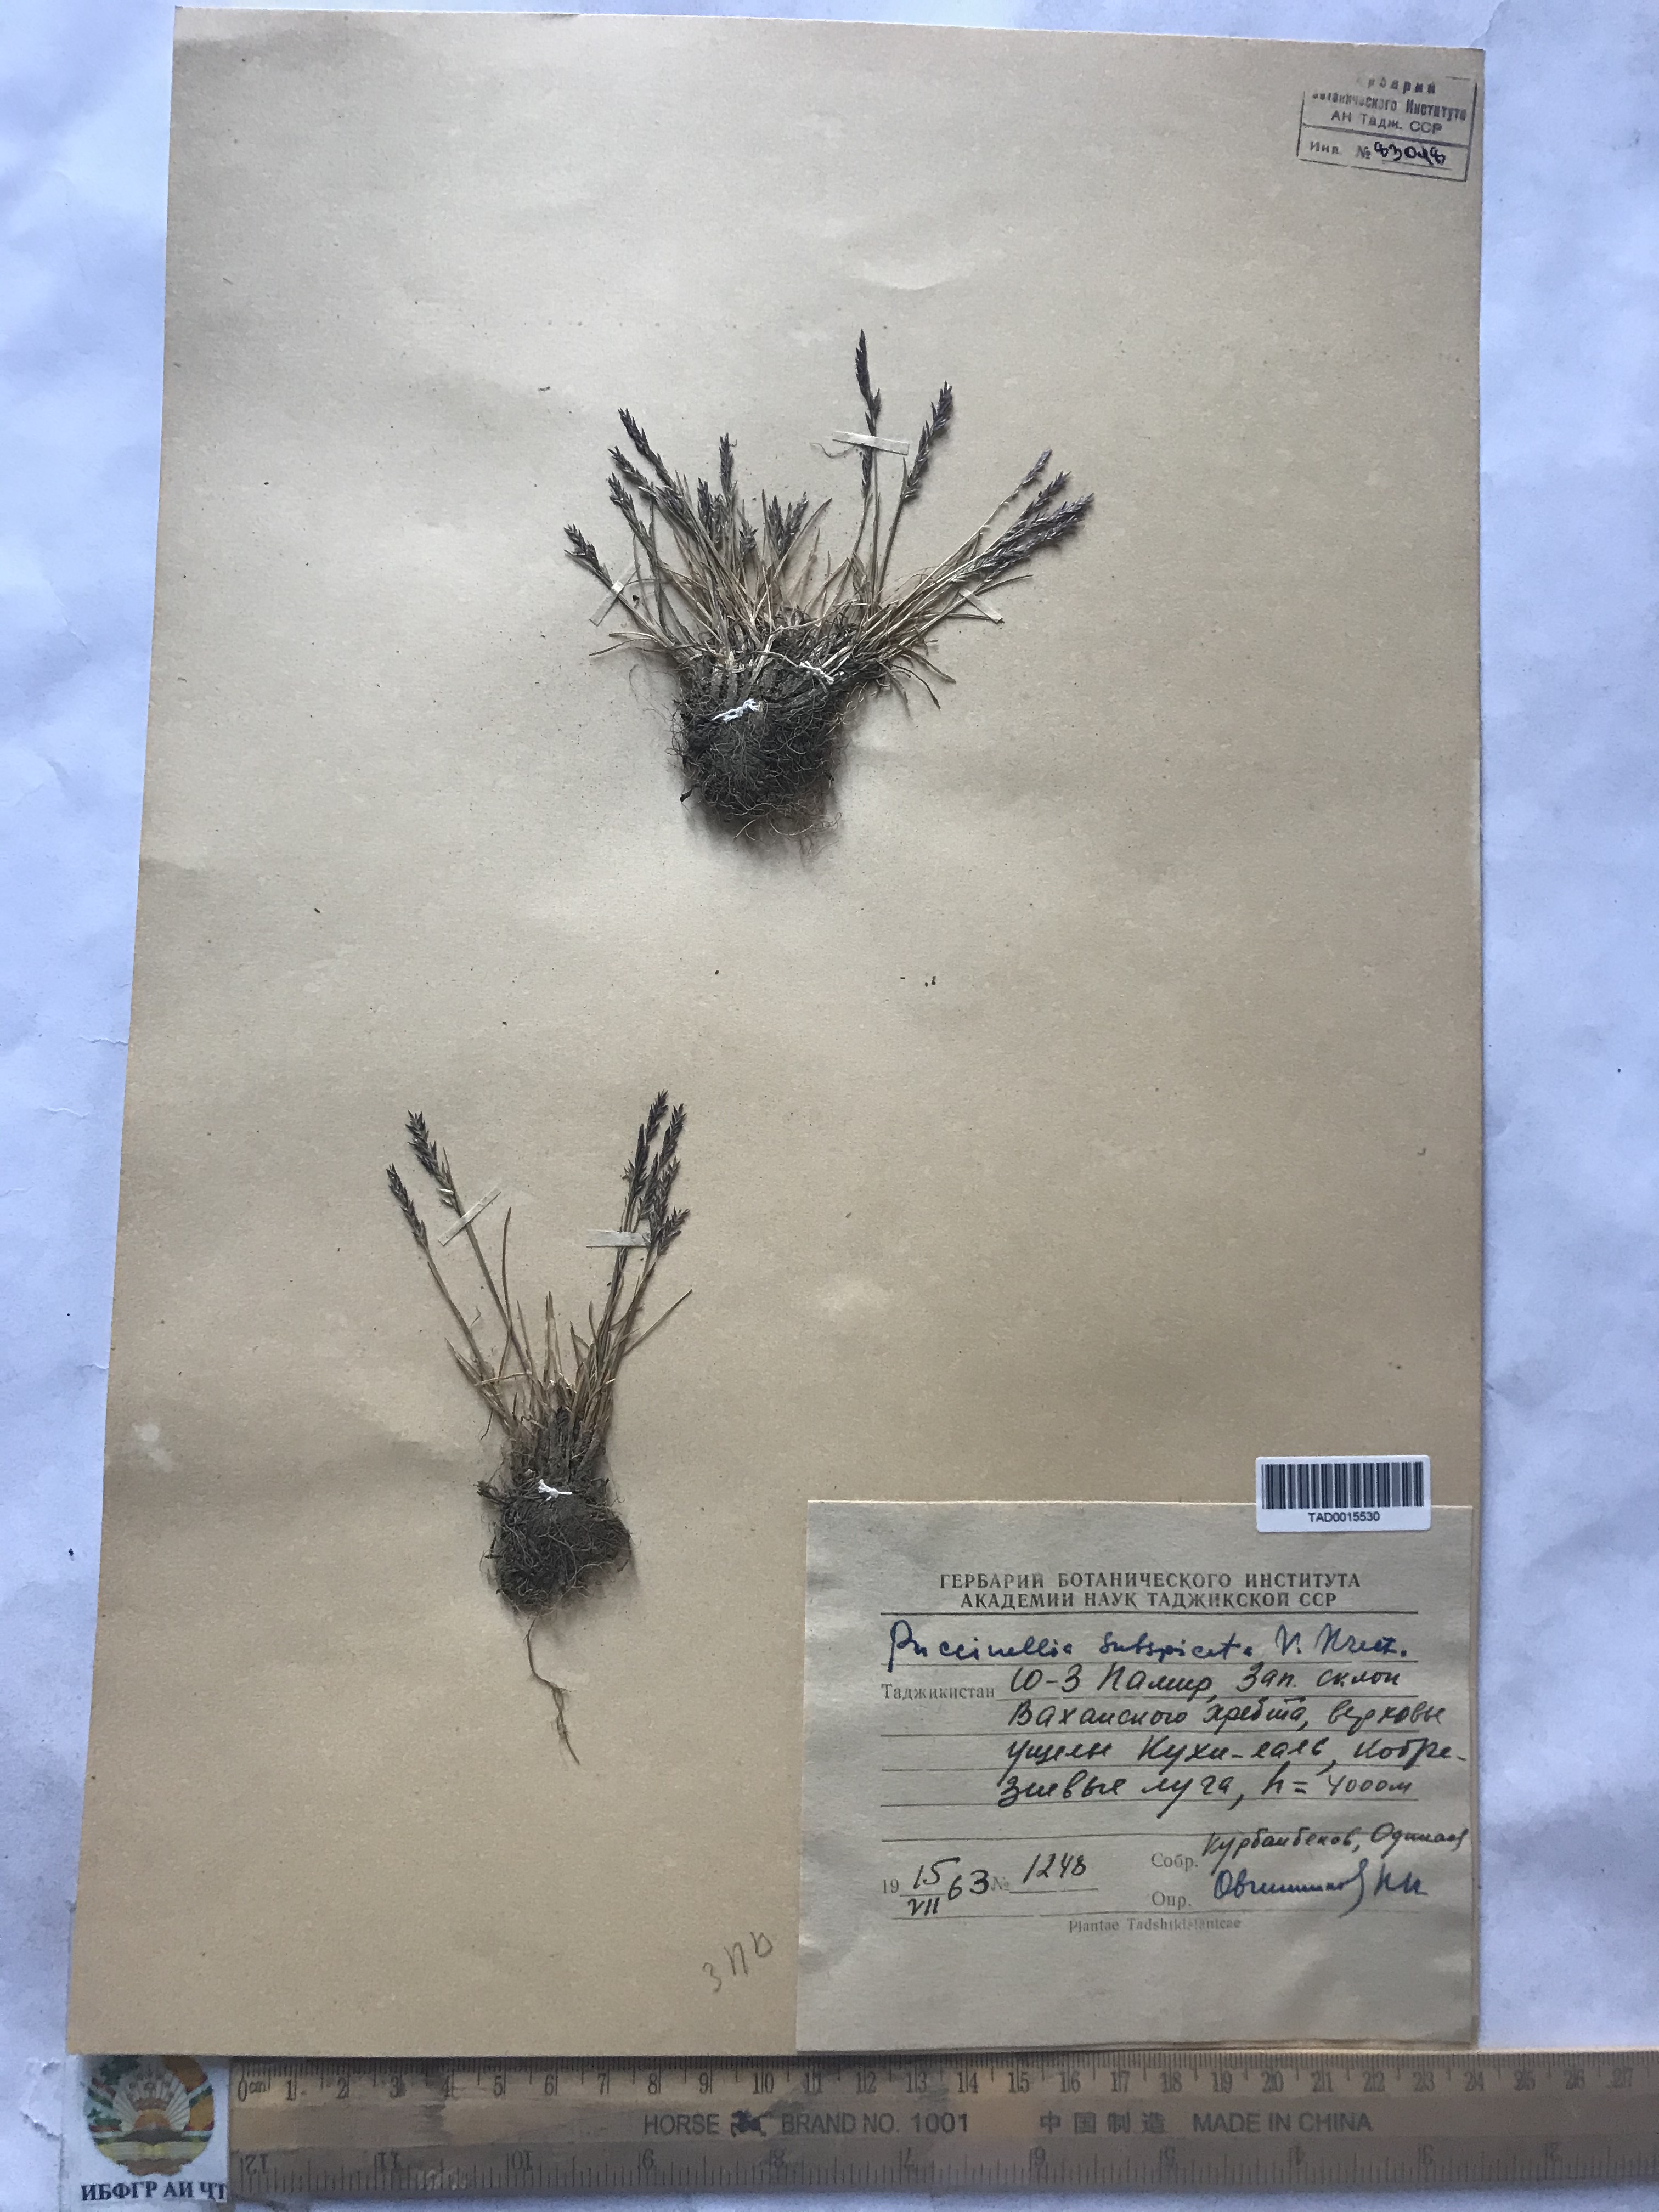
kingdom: Plantae
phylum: Tracheophyta
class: Liliopsida
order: Poales
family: Poaceae
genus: Puccinellia
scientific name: Puccinellia subspicata
